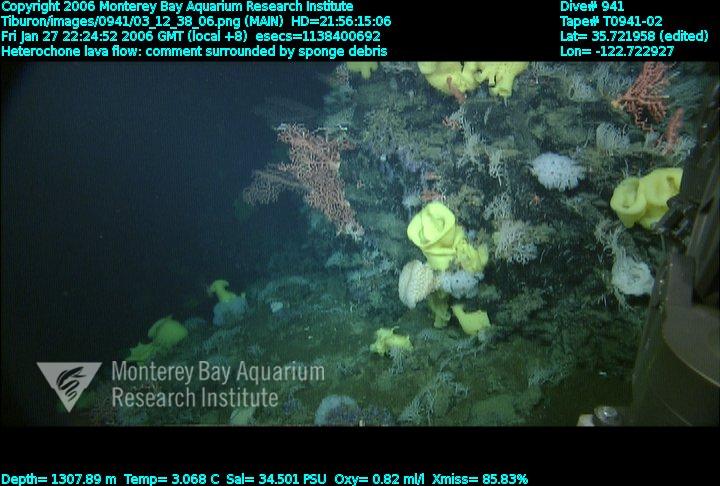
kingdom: Animalia
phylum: Porifera
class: Hexactinellida
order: Sceptrulophora
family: Aphrocallistidae
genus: Heterochone
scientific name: Heterochone
